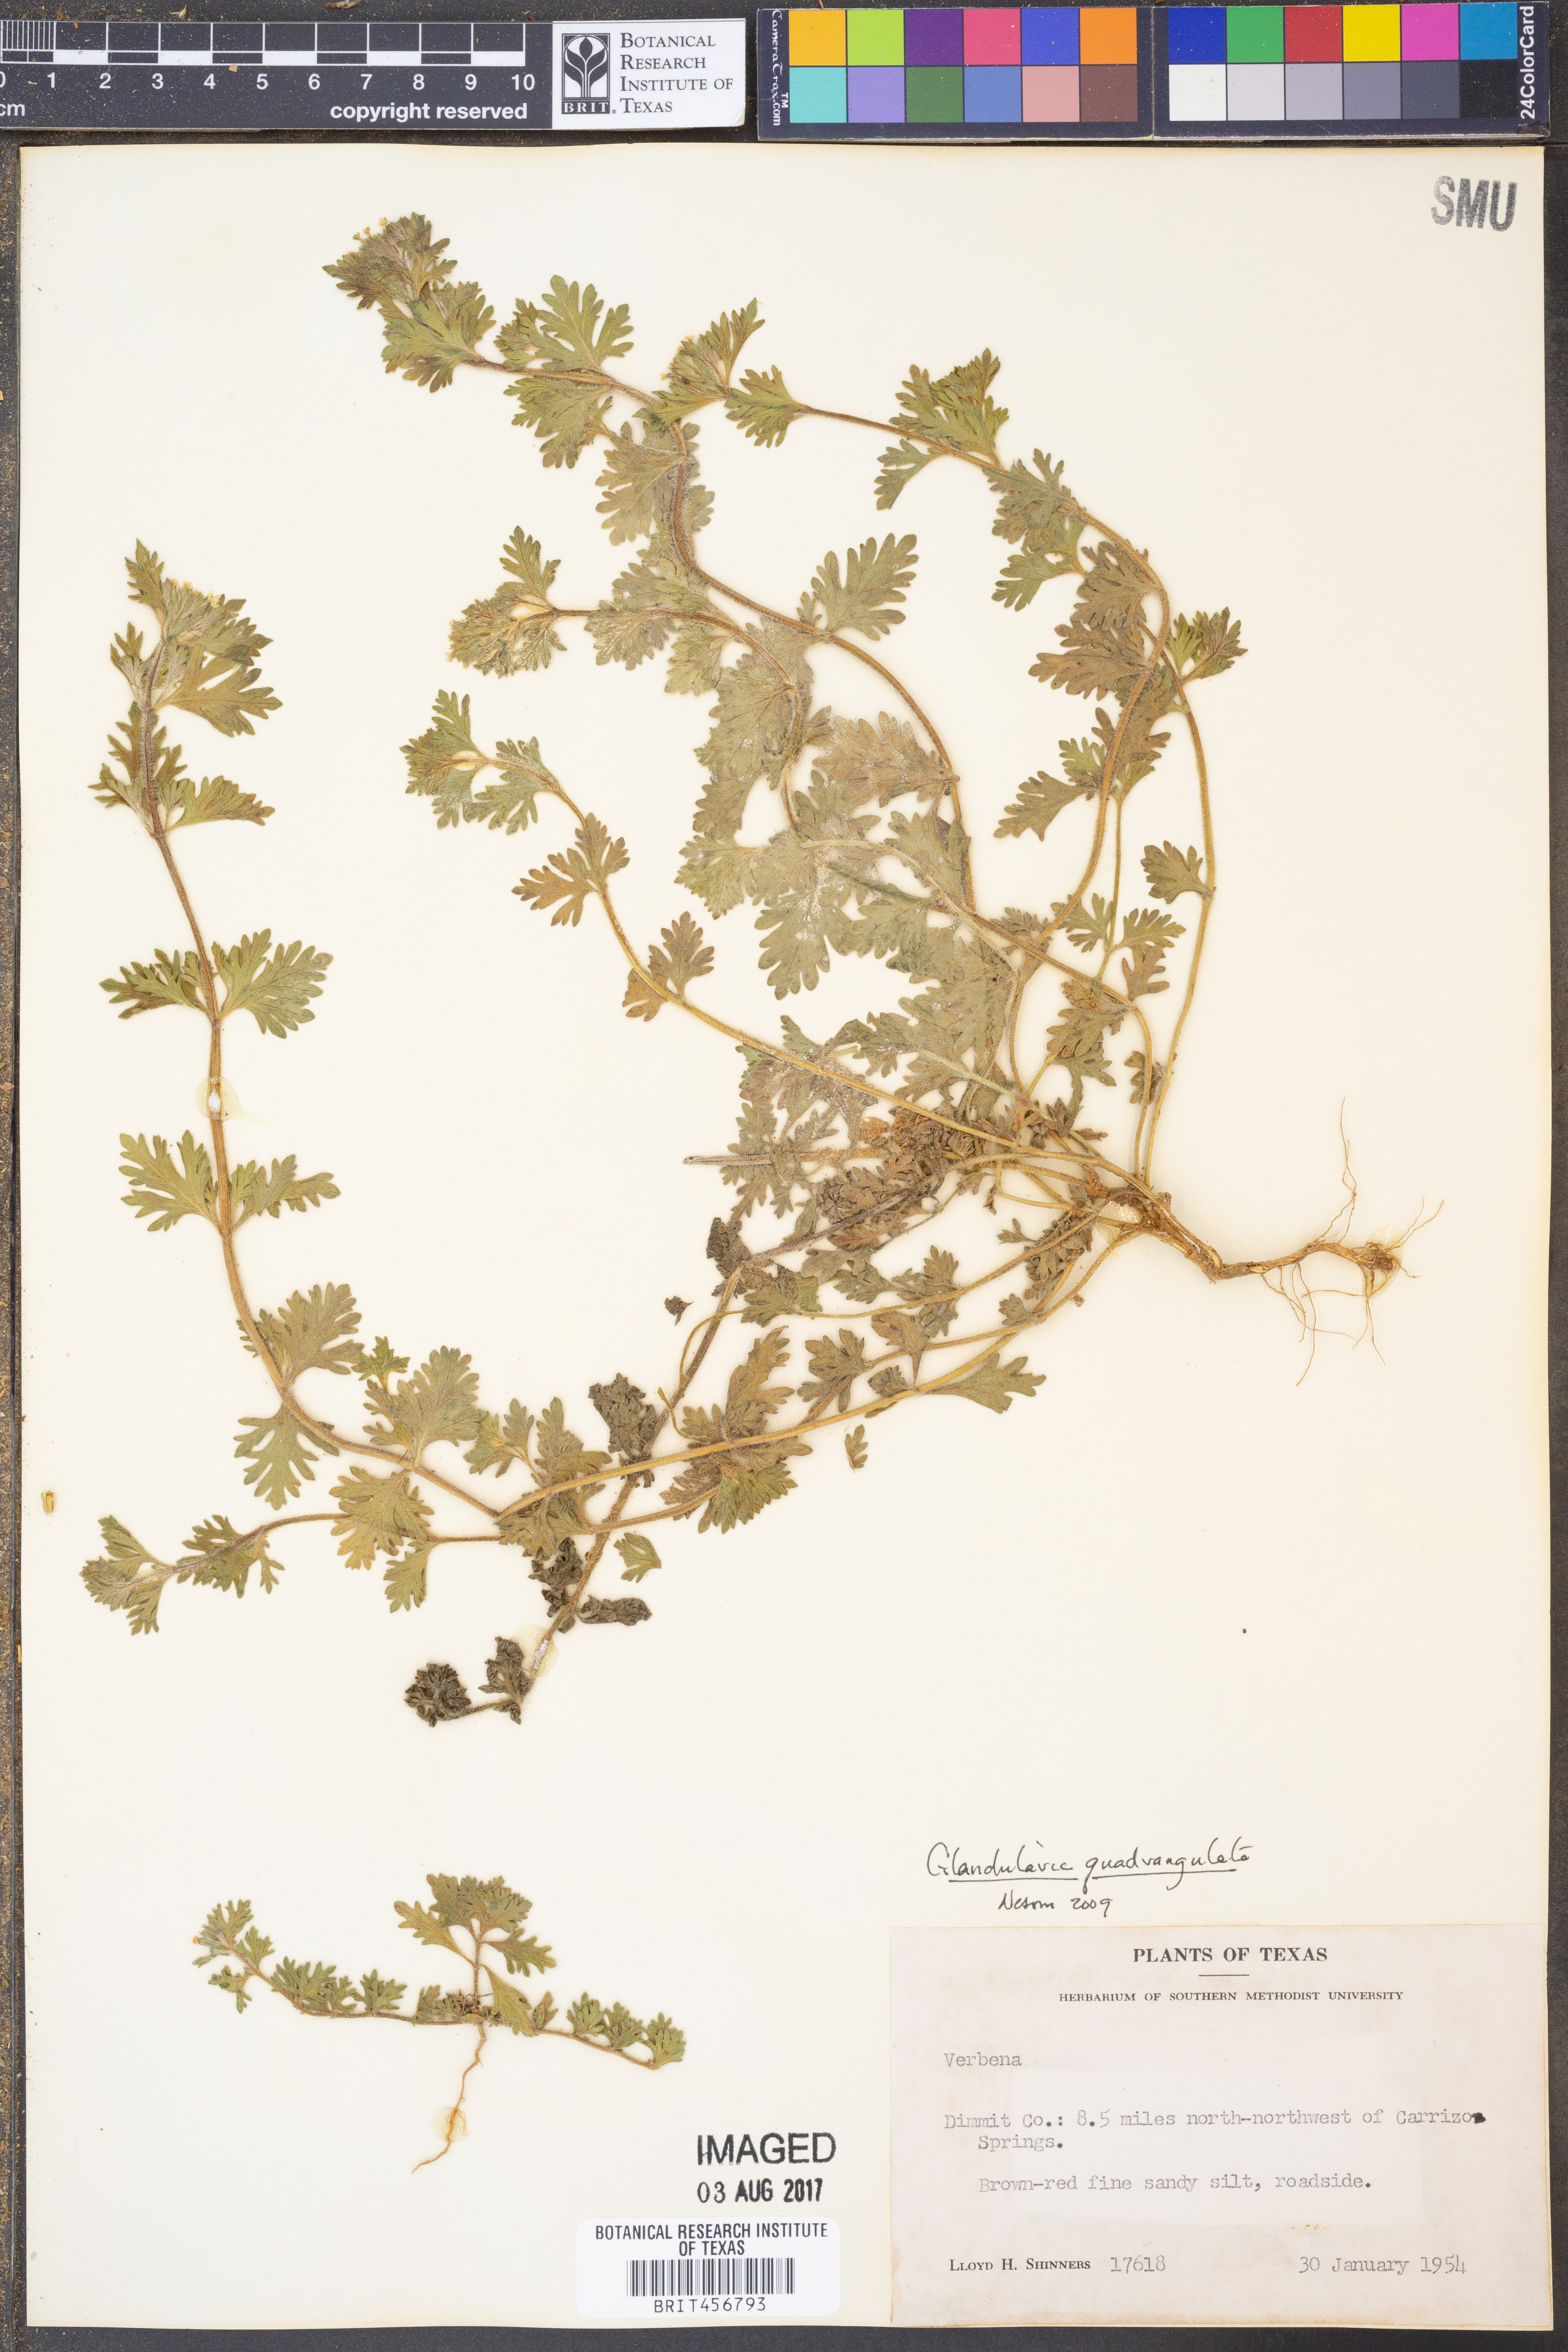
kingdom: Plantae
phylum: Tracheophyta
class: Magnoliopsida
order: Lamiales
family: Verbenaceae
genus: Verbena
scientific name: Verbena quadrangulata
